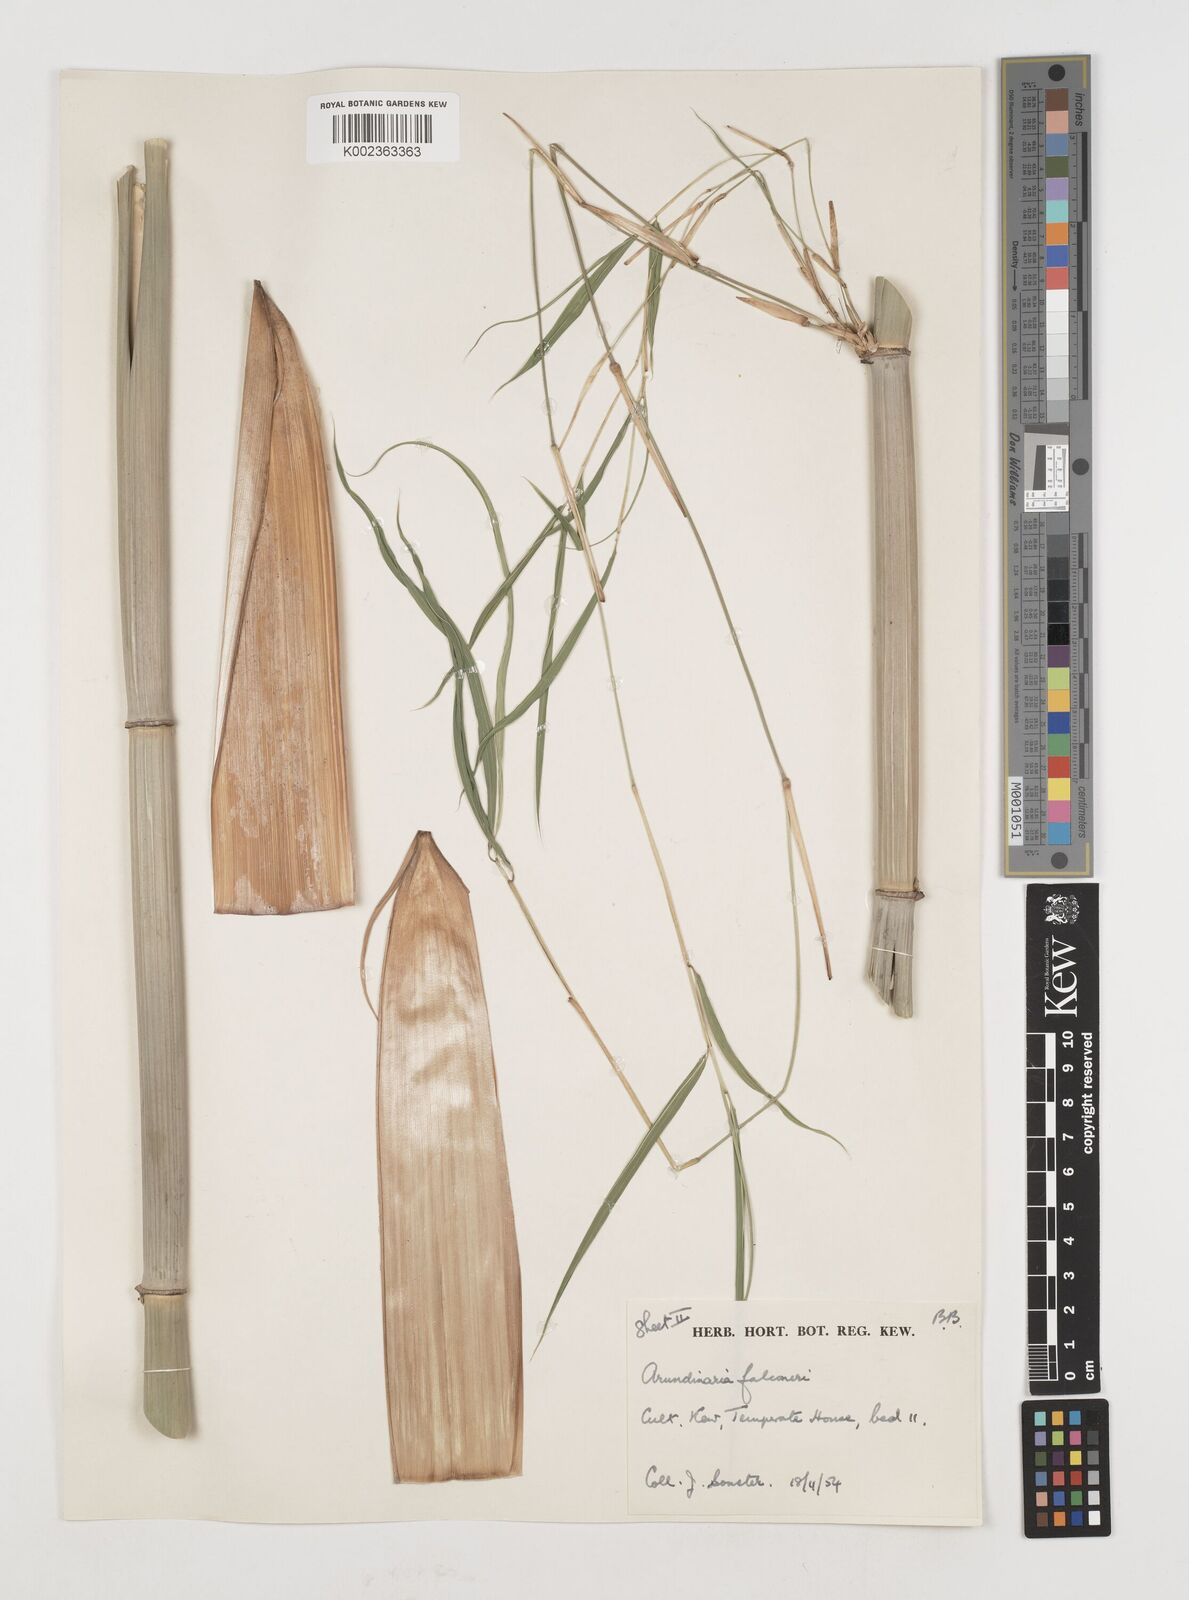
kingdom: Plantae
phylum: Tracheophyta
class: Liliopsida
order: Poales
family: Poaceae
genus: Himalayacalamus
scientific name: Himalayacalamus falconeri
